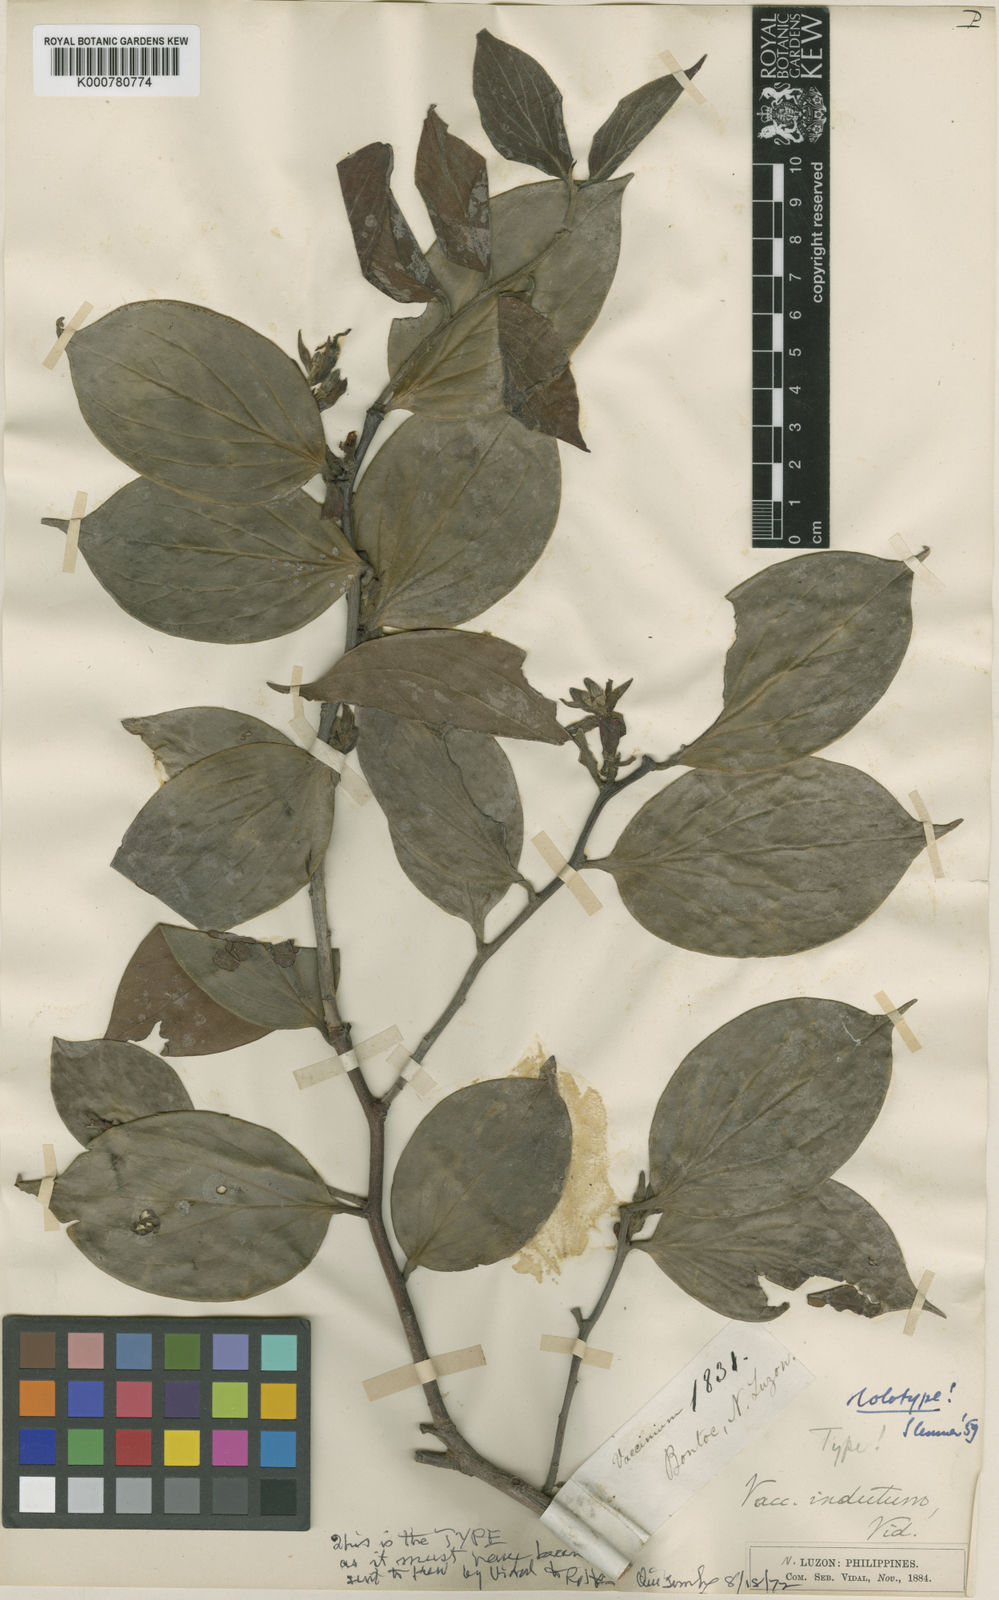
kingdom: Plantae
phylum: Tracheophyta
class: Magnoliopsida
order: Ericales
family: Ericaceae
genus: Vaccinium
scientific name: Vaccinium indutum
